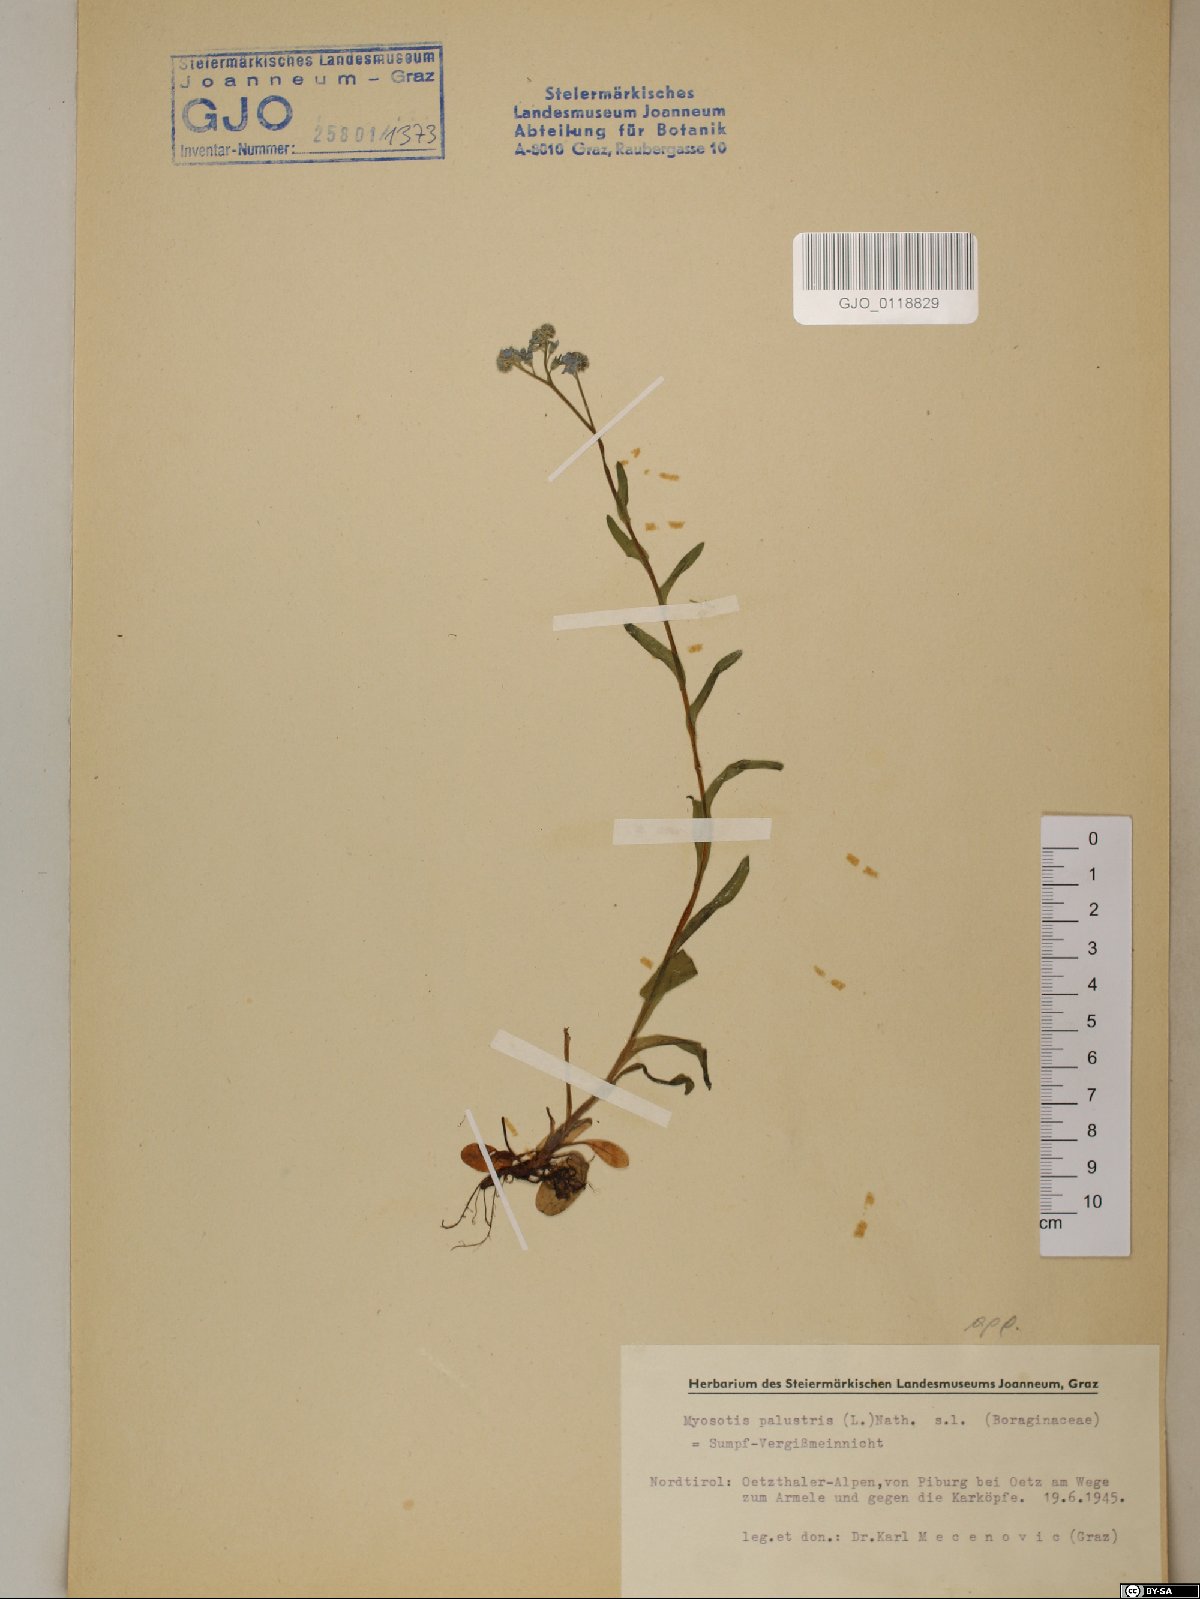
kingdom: Plantae
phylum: Tracheophyta
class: Magnoliopsida
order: Boraginales
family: Boraginaceae
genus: Myosotis
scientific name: Myosotis scorpioides
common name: Water forget-me-not
